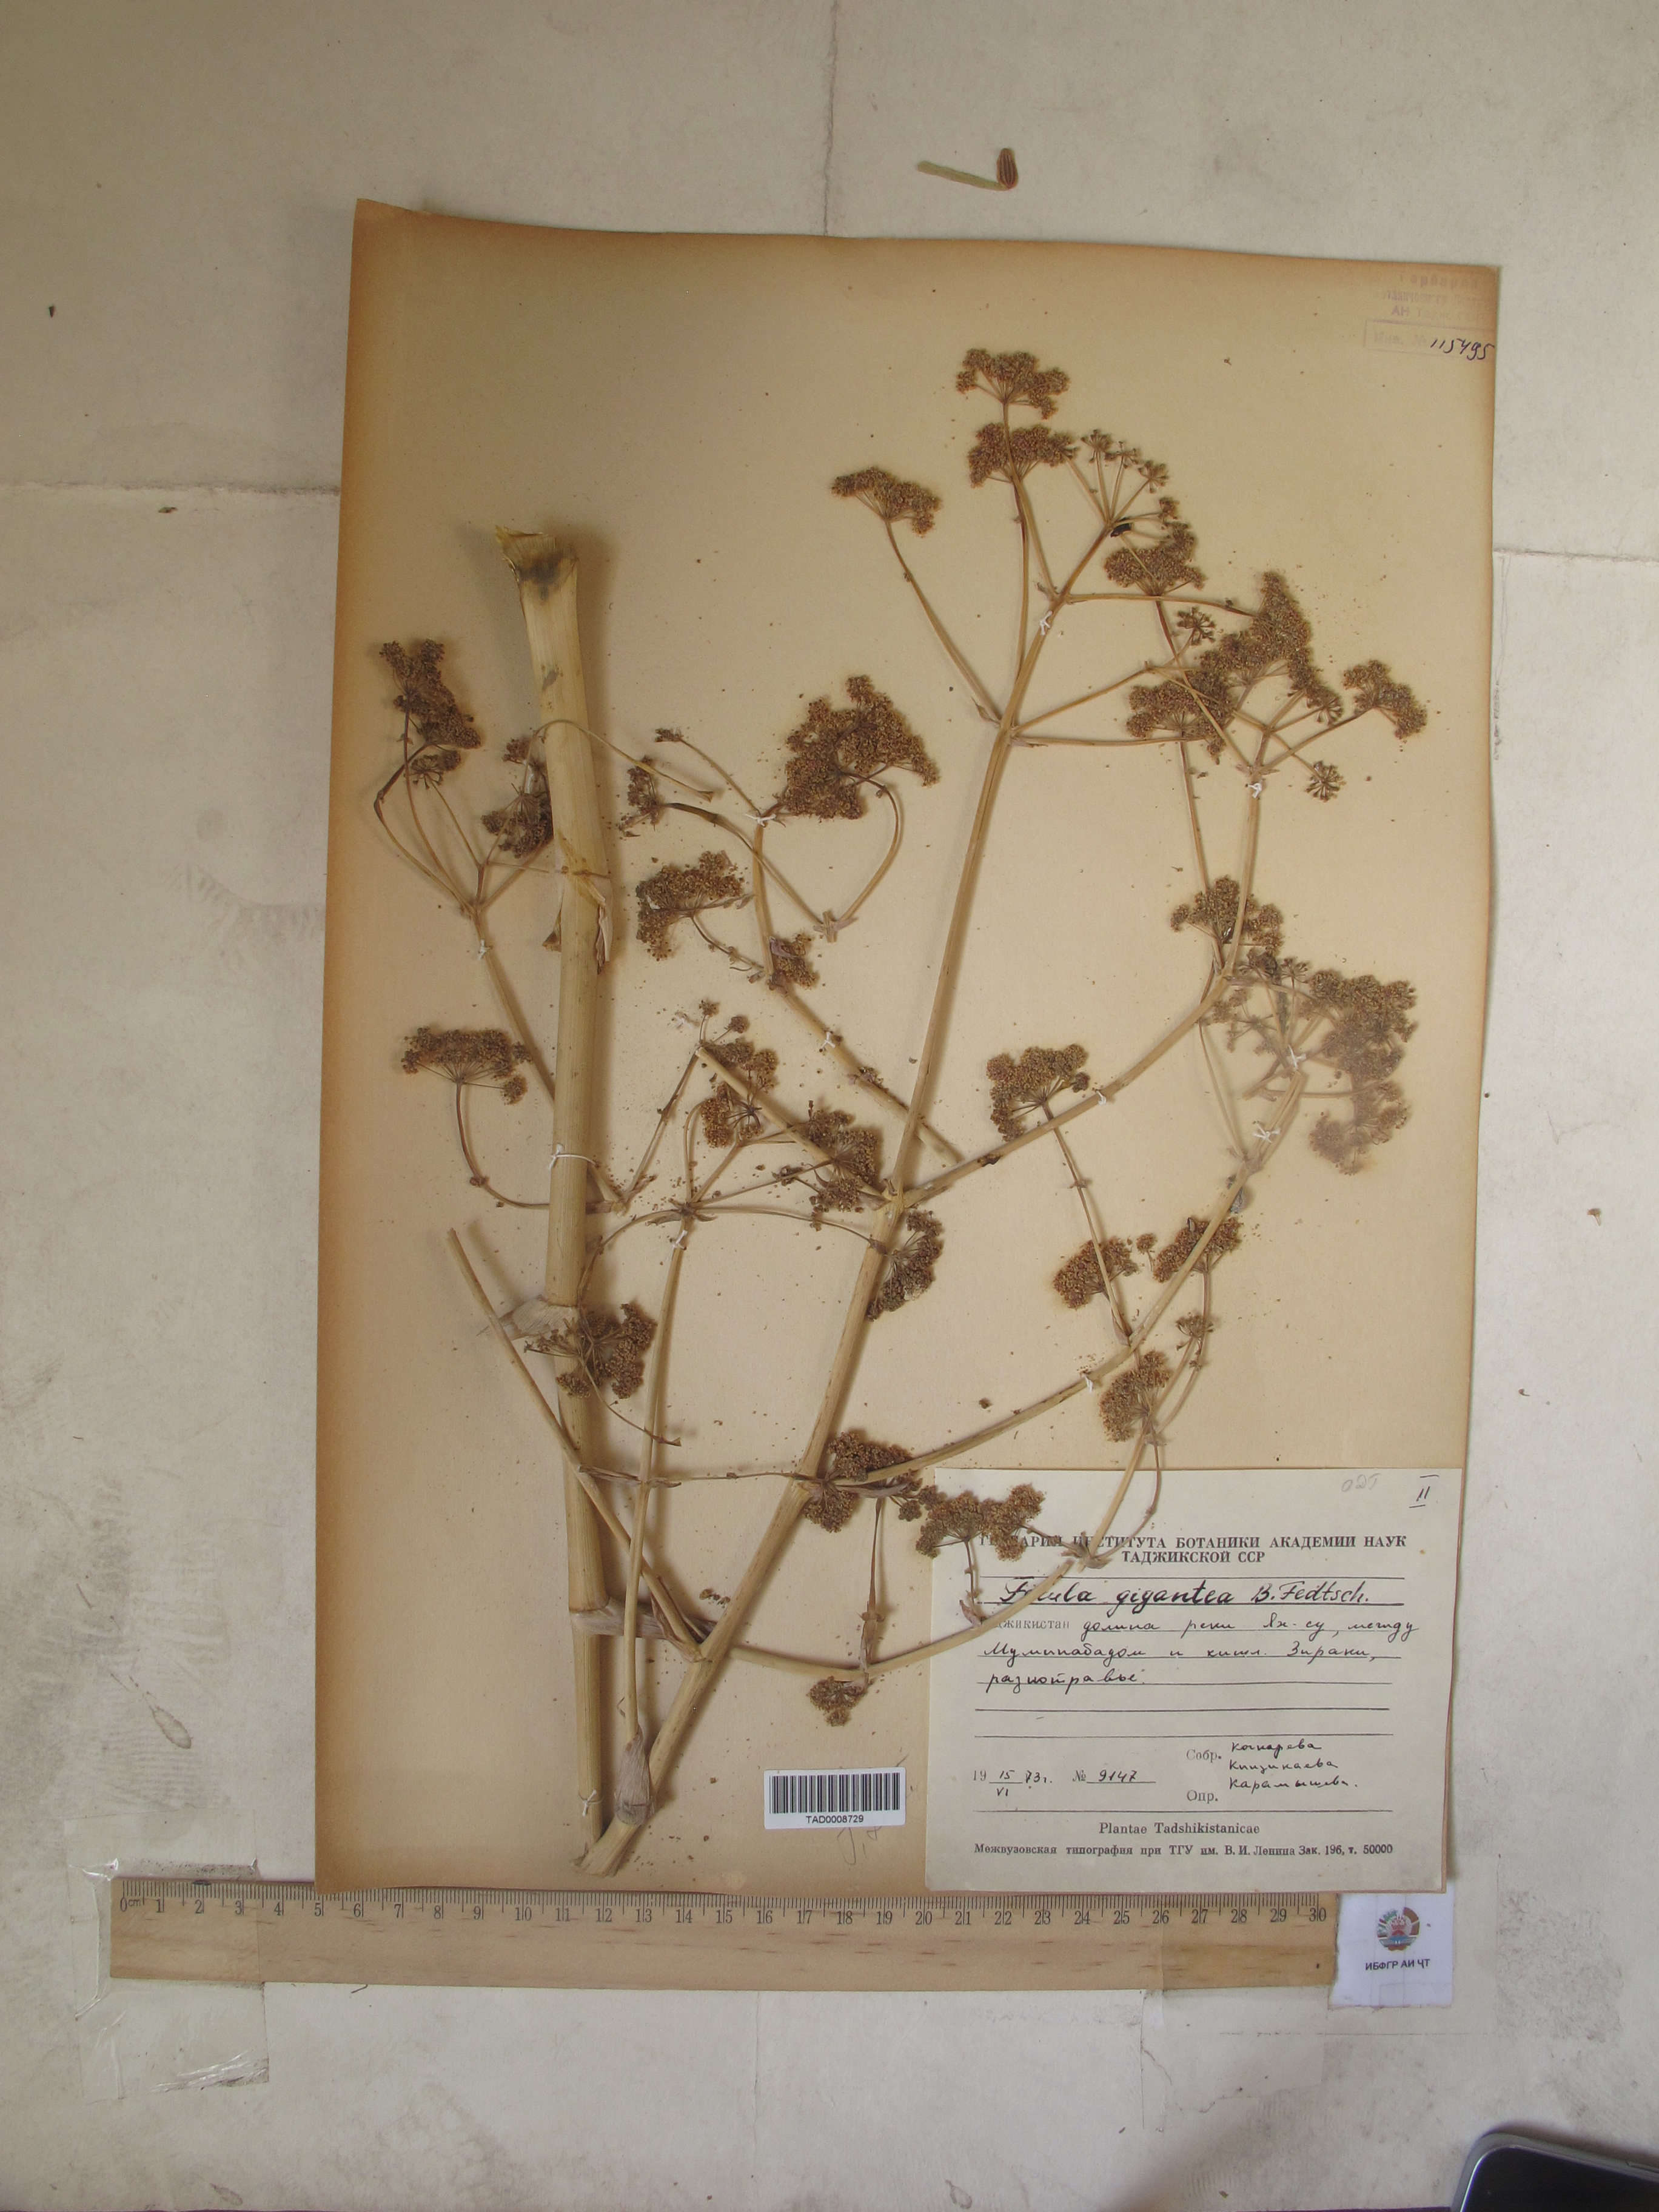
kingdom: Plantae
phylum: Tracheophyta
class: Magnoliopsida
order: Apiales
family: Apiaceae
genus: Ferula
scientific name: Ferula gigantea
